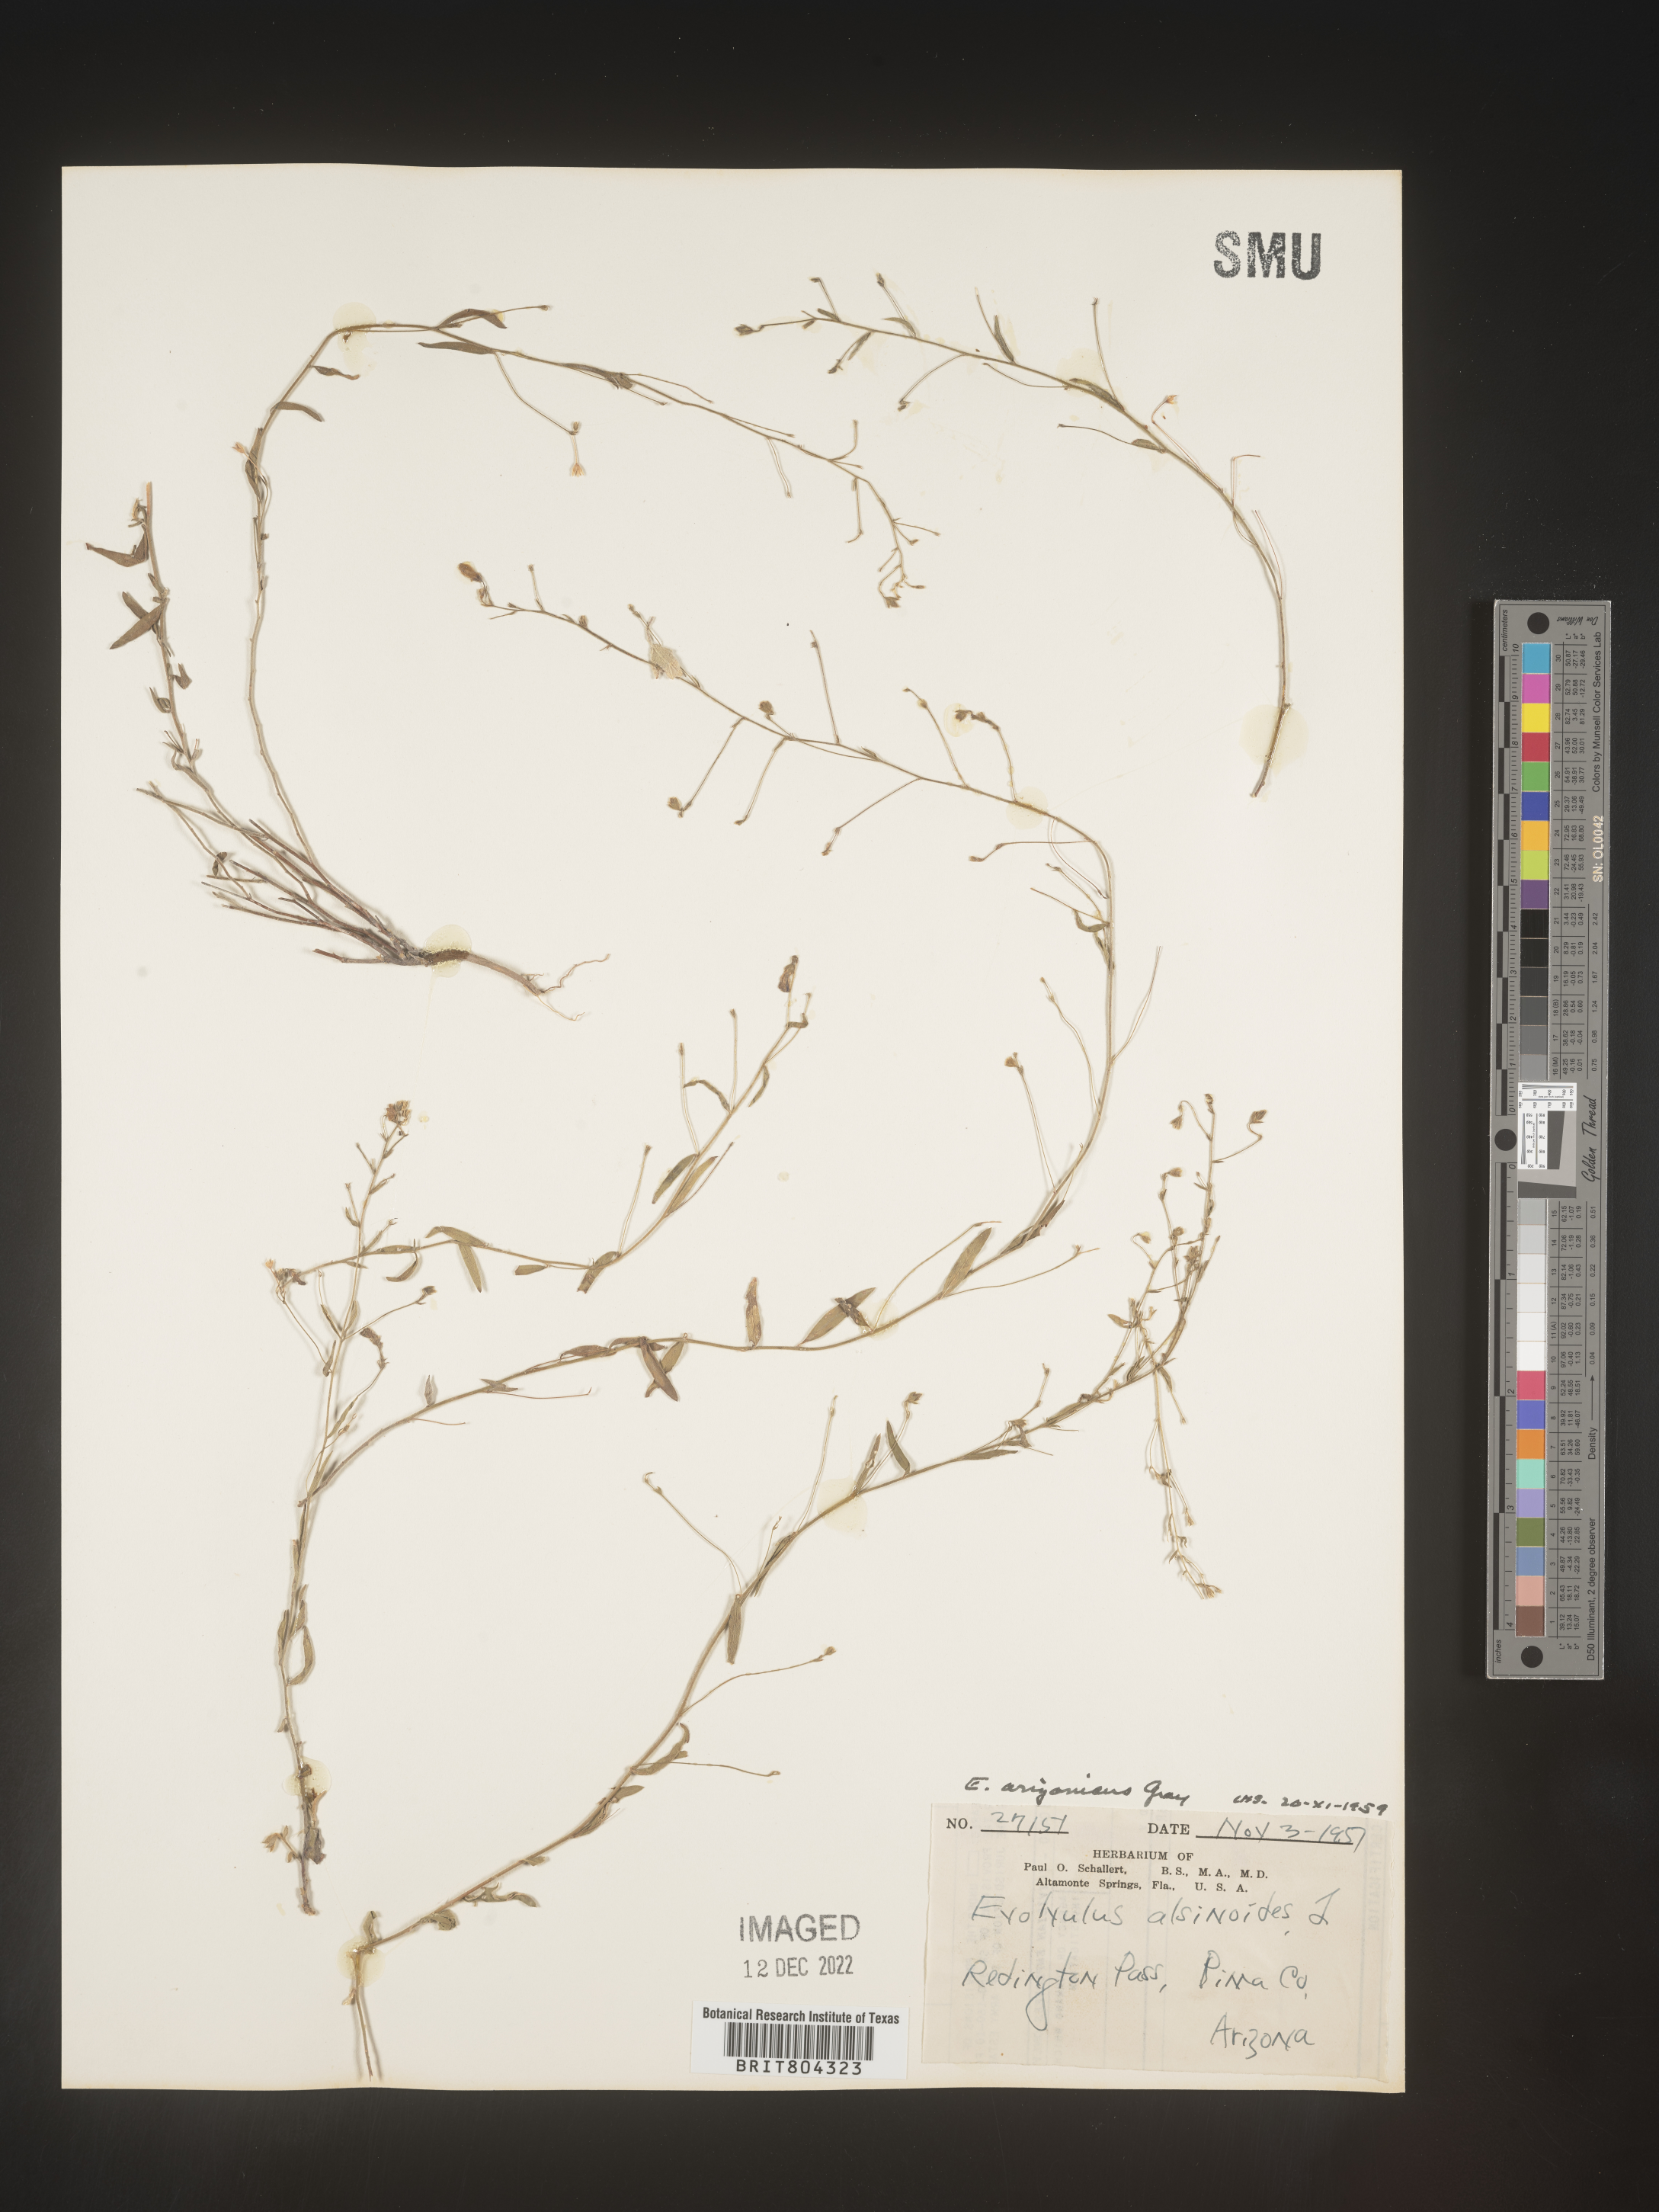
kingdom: Plantae
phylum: Tracheophyta
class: Magnoliopsida
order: Solanales
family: Convolvulaceae
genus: Evolvulus
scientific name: Evolvulus alsinoides
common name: Slender dwarf morning-glory
